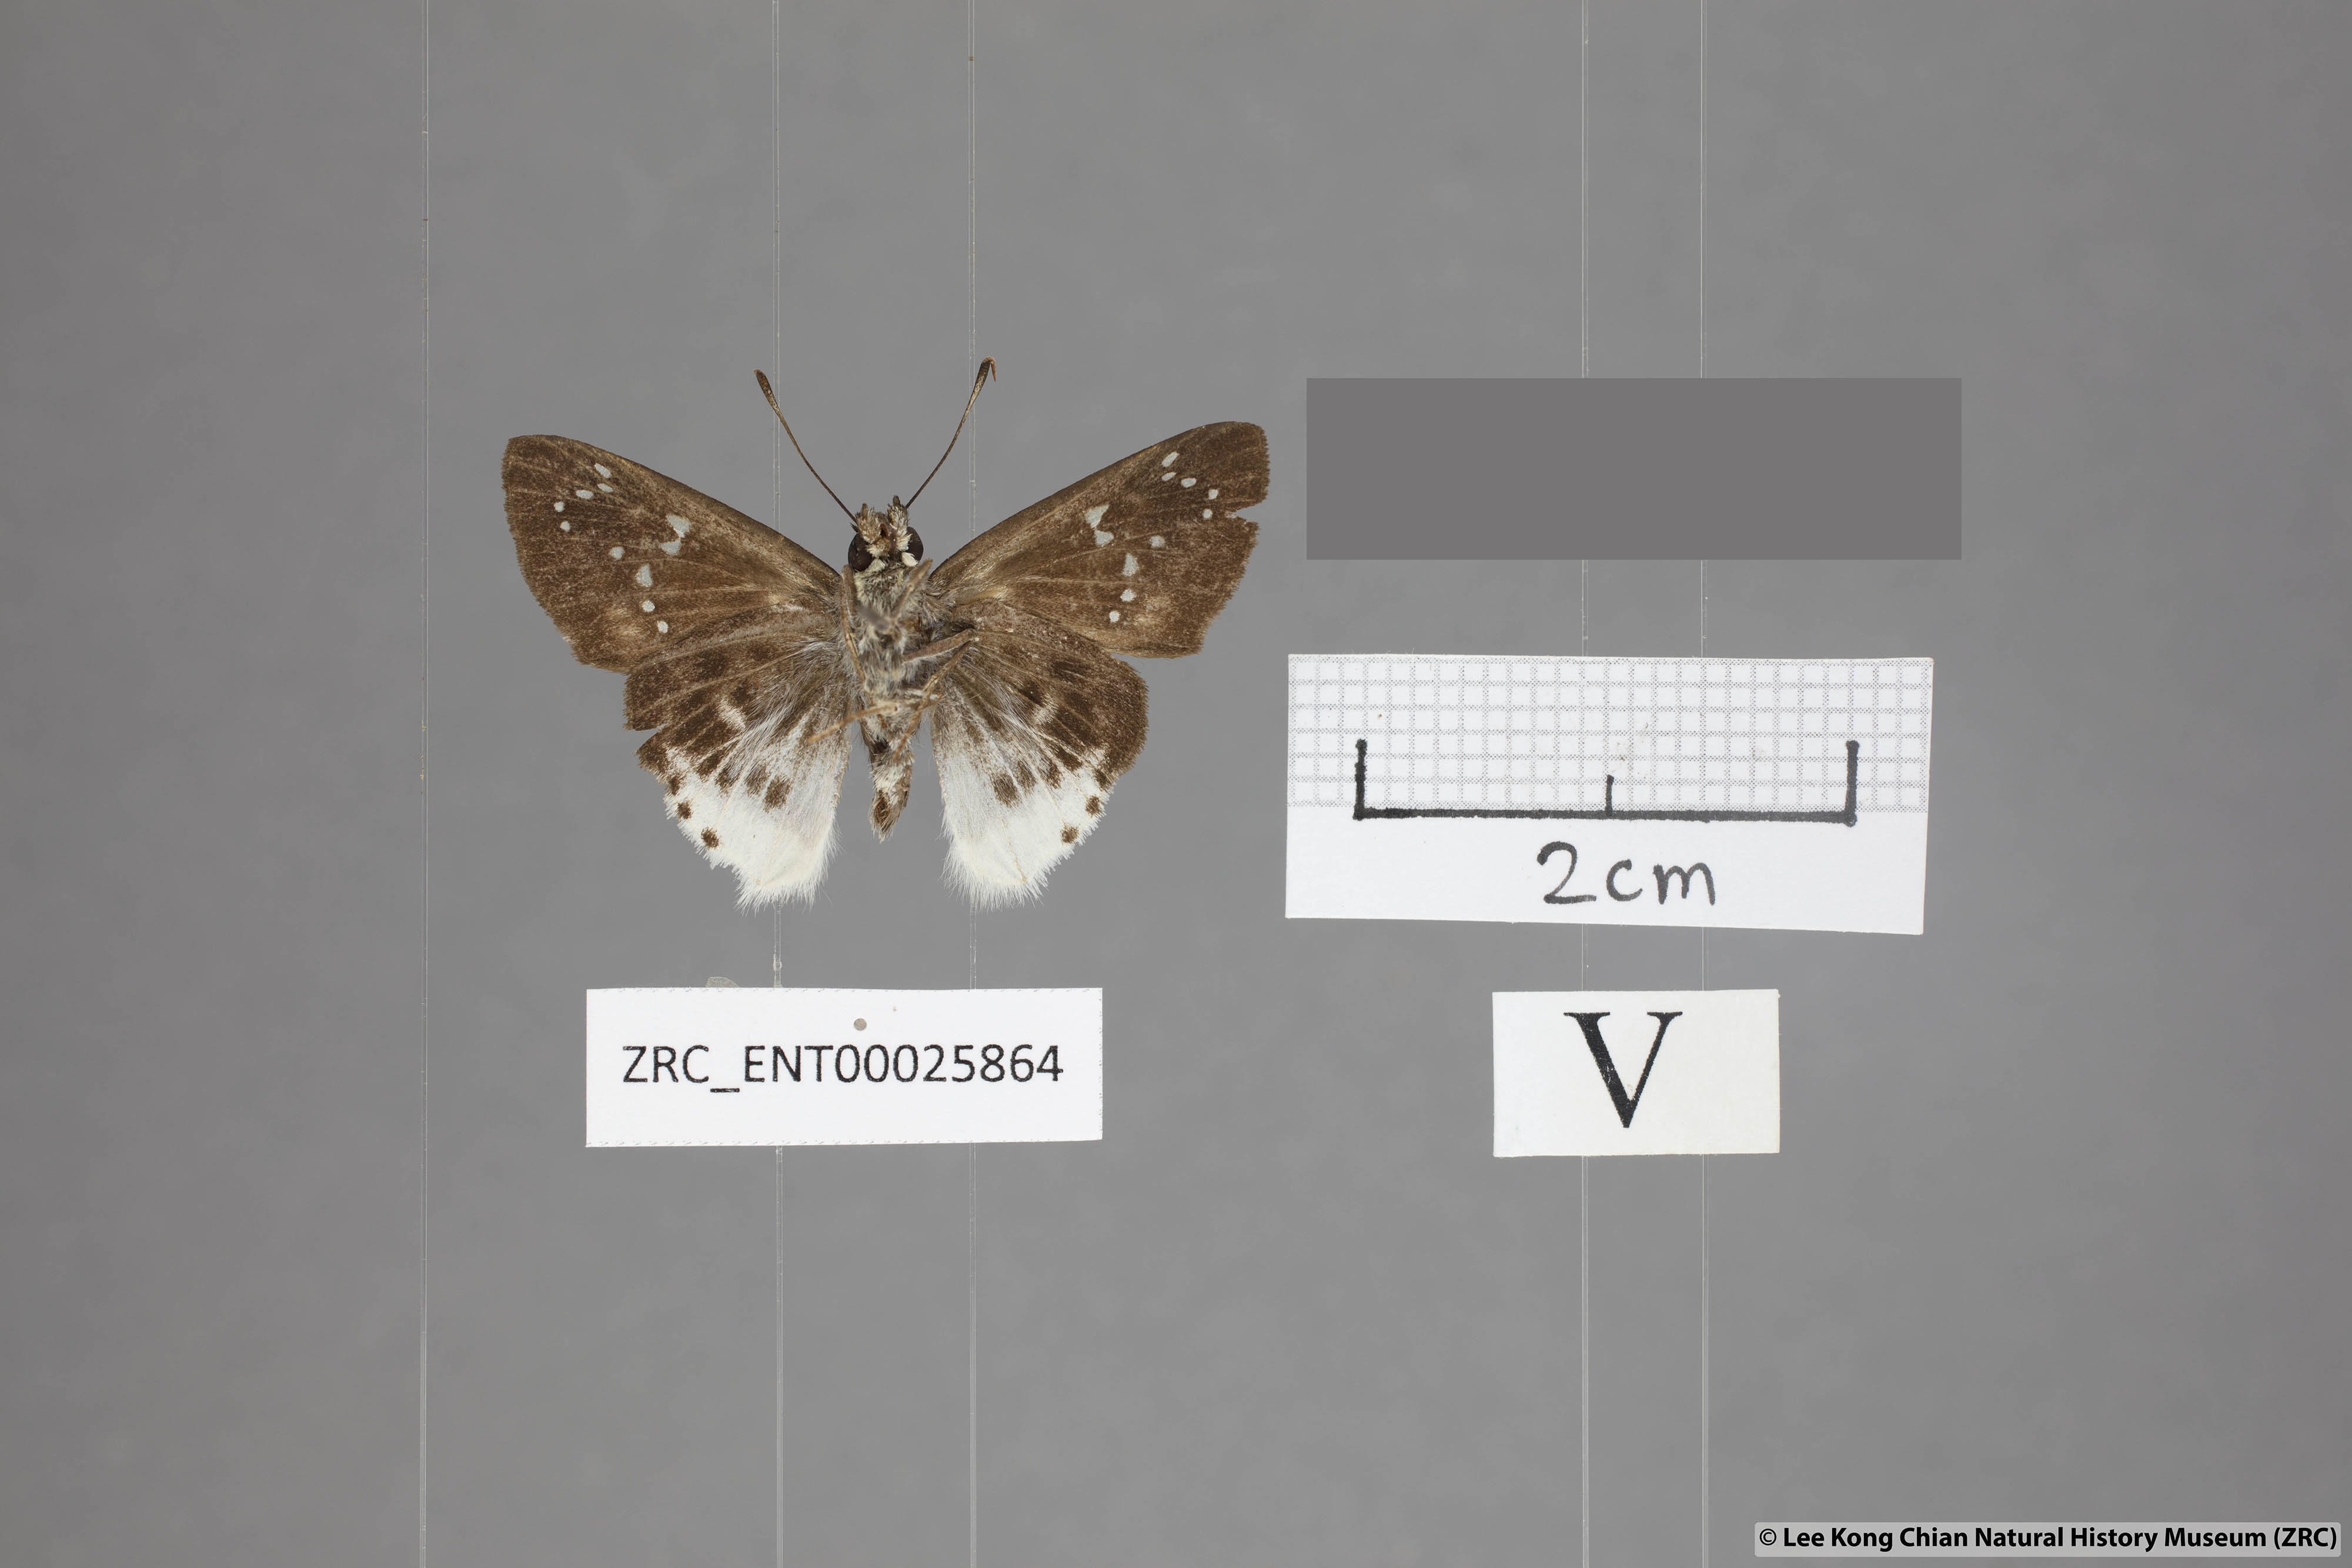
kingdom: Animalia
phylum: Arthropoda
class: Insecta
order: Lepidoptera
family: Hesperiidae
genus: Darpa
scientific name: Darpa striata
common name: Striated angle
